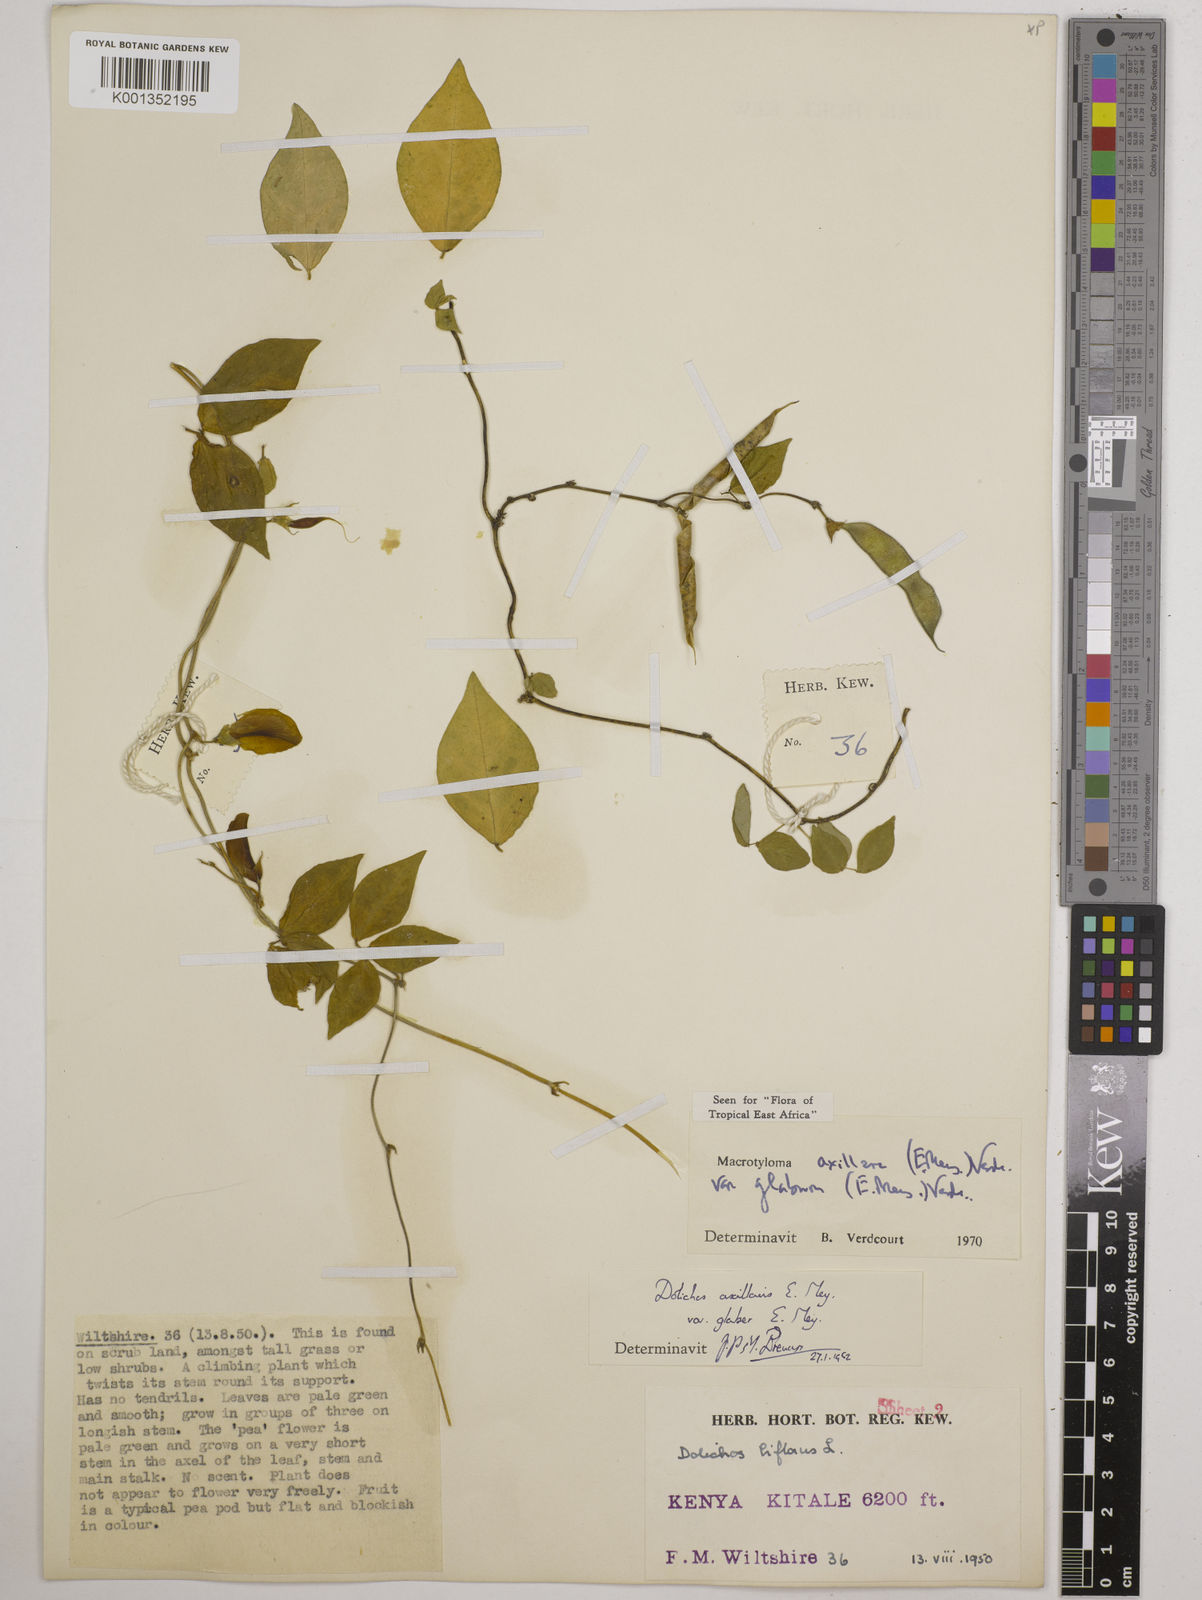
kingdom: Plantae
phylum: Tracheophyta
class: Magnoliopsida
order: Fabales
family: Fabaceae
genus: Macrotyloma
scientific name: Macrotyloma
